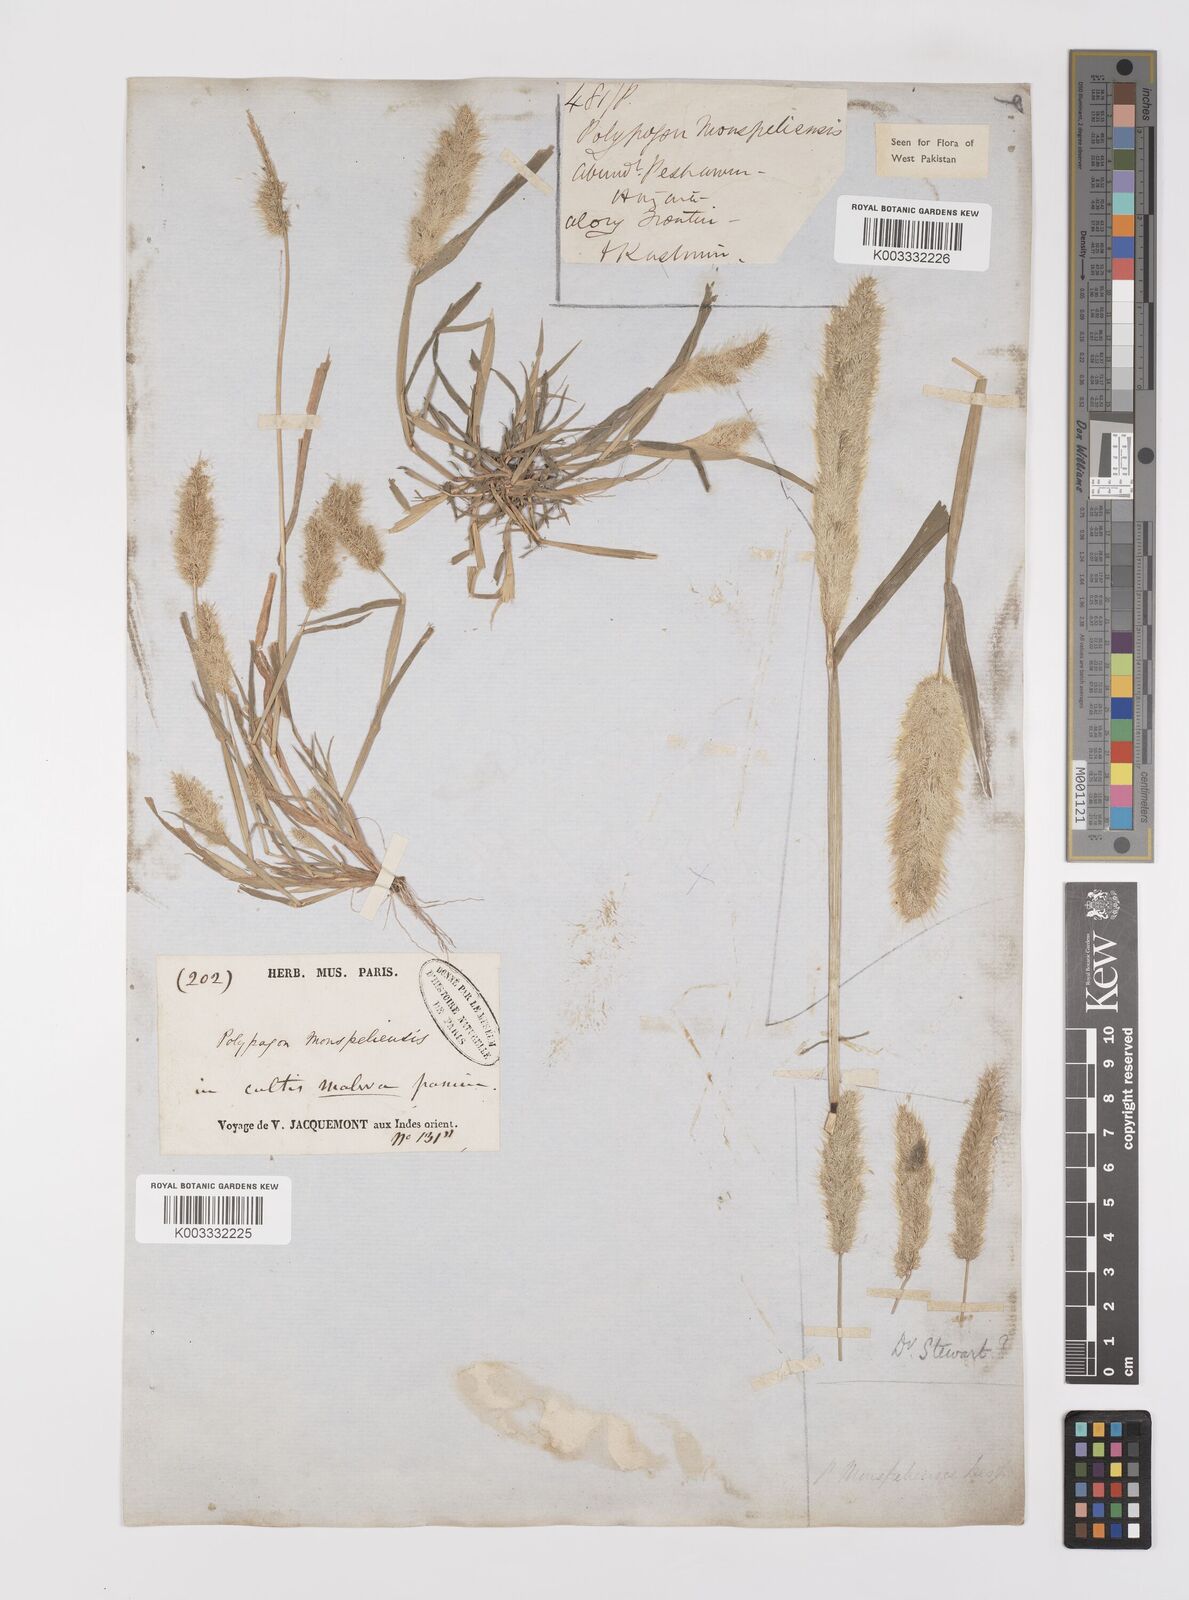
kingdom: Plantae
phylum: Tracheophyta
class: Liliopsida
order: Poales
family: Poaceae
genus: Polypogon
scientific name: Polypogon monspeliensis
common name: Annual rabbitsfoot grass
